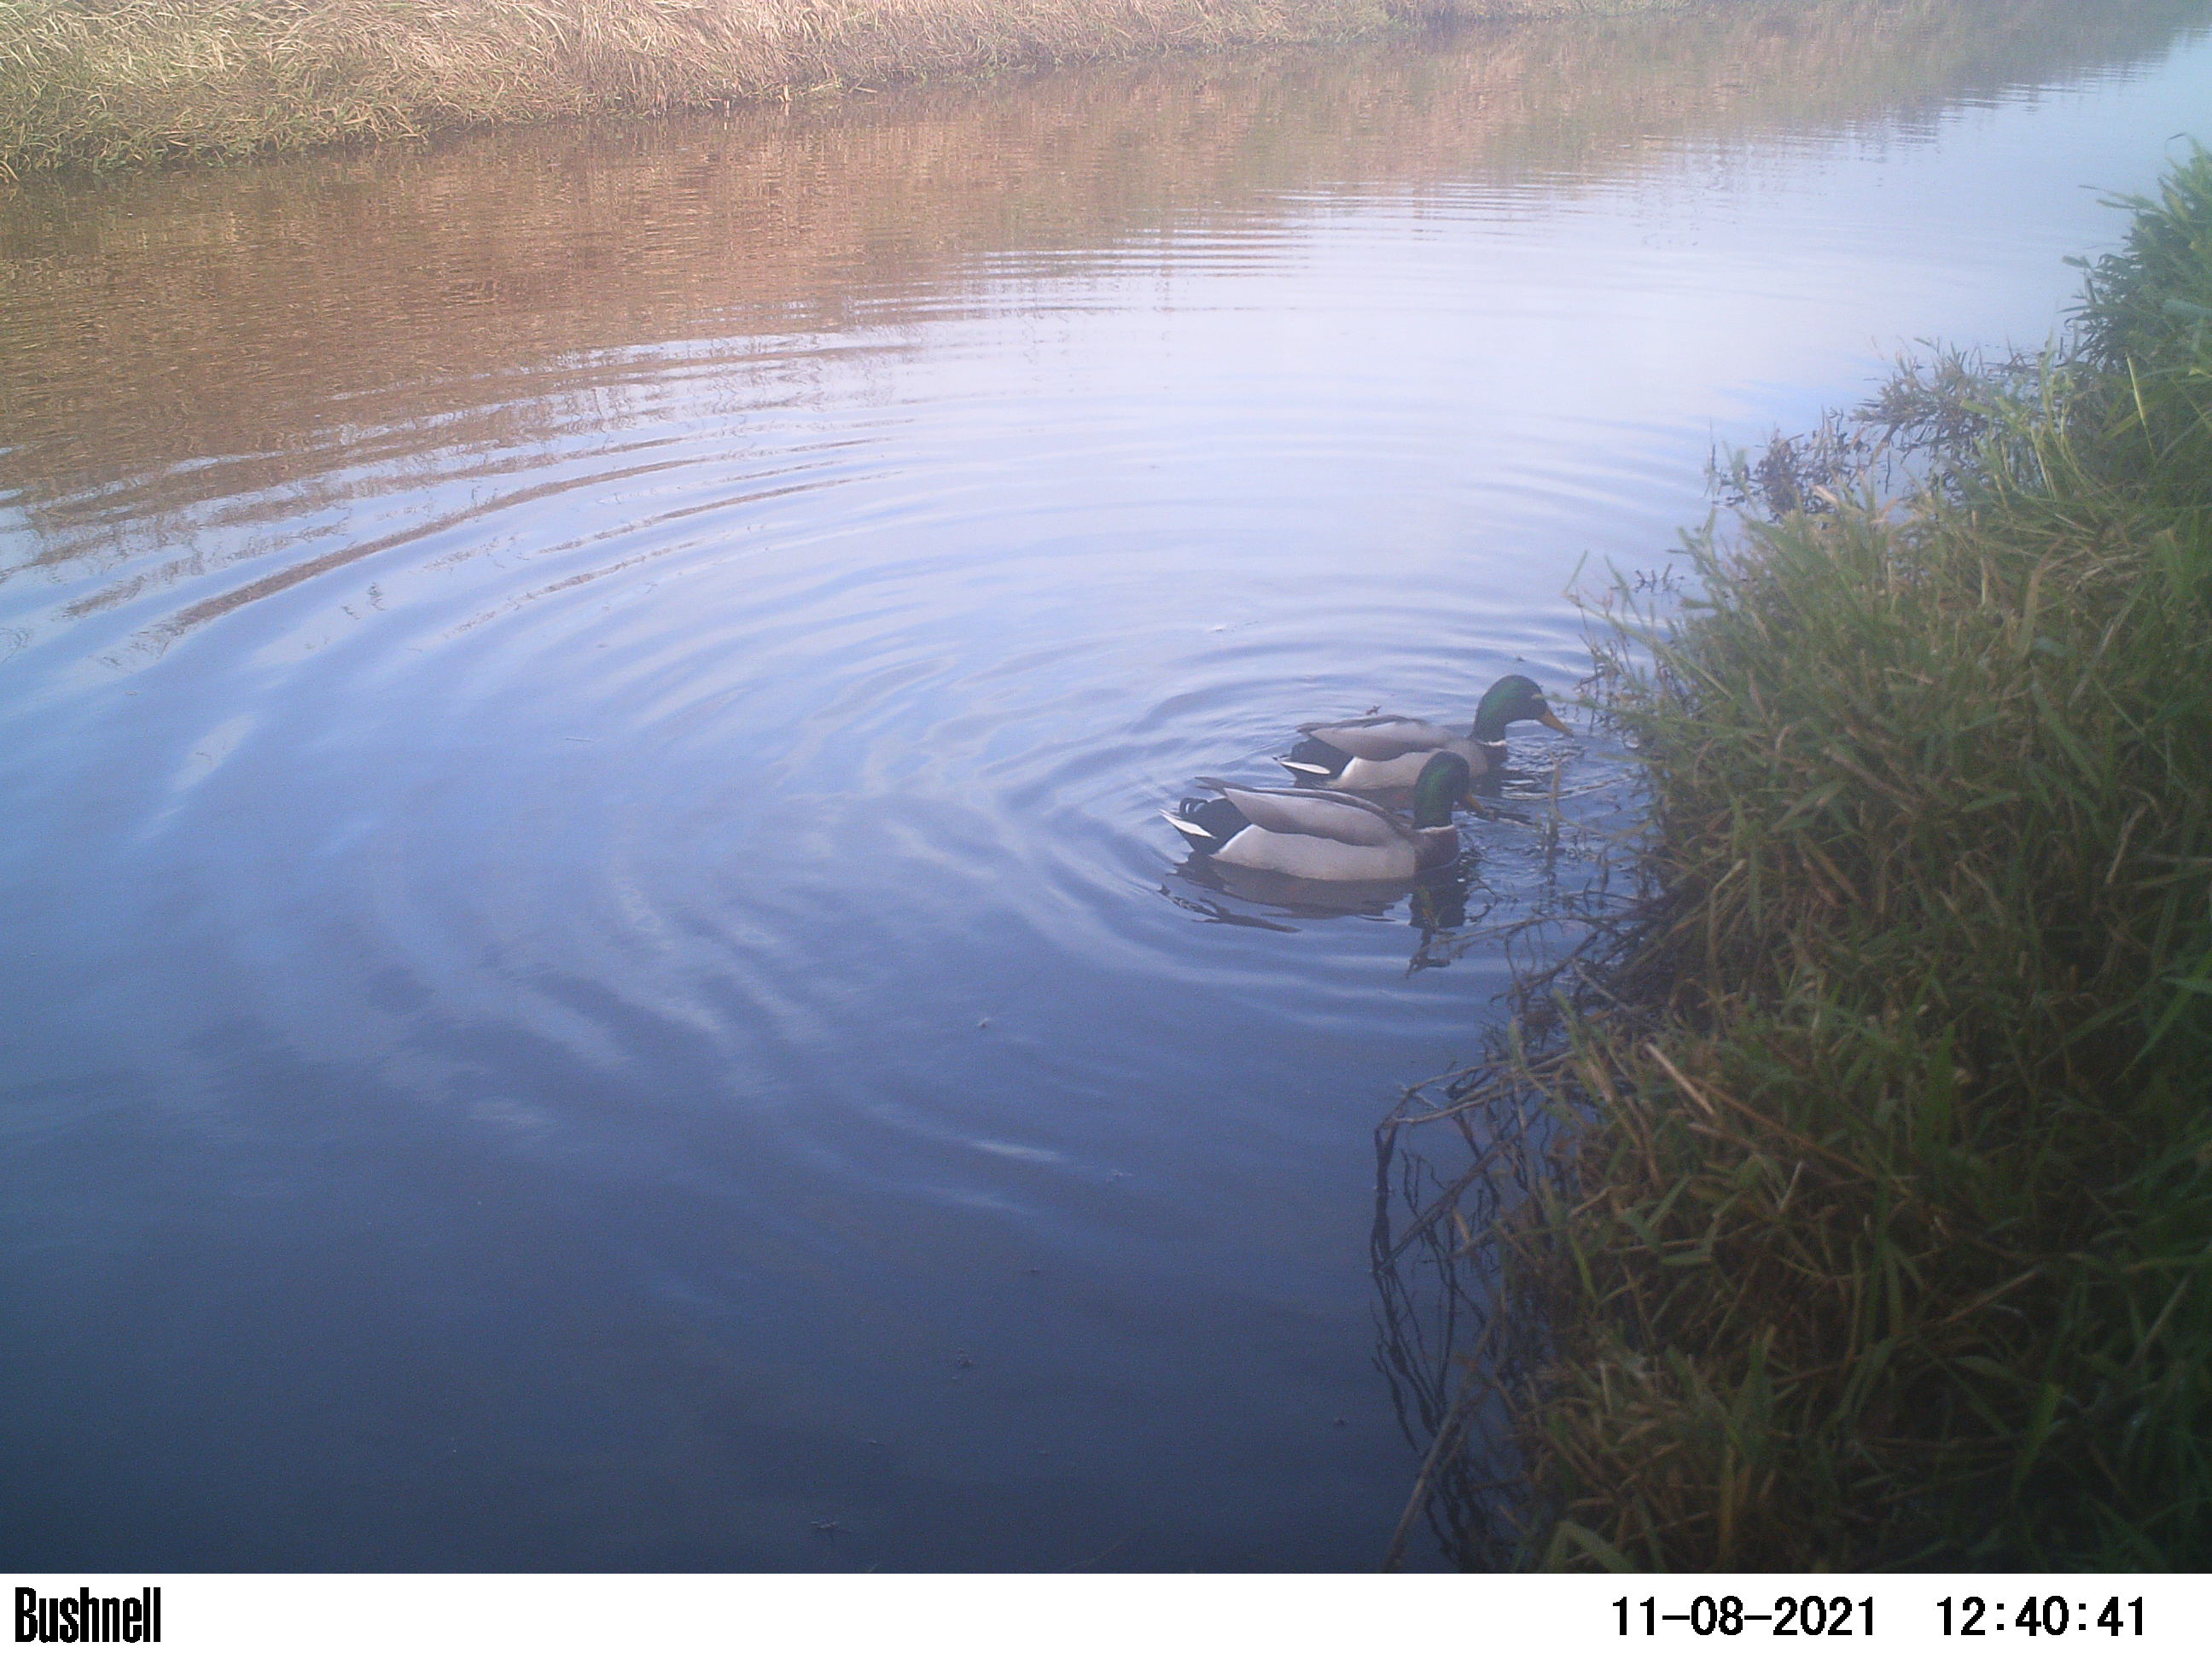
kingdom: Animalia
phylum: Chordata
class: Aves
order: Anseriformes
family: Anatidae
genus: Anas
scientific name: Anas
